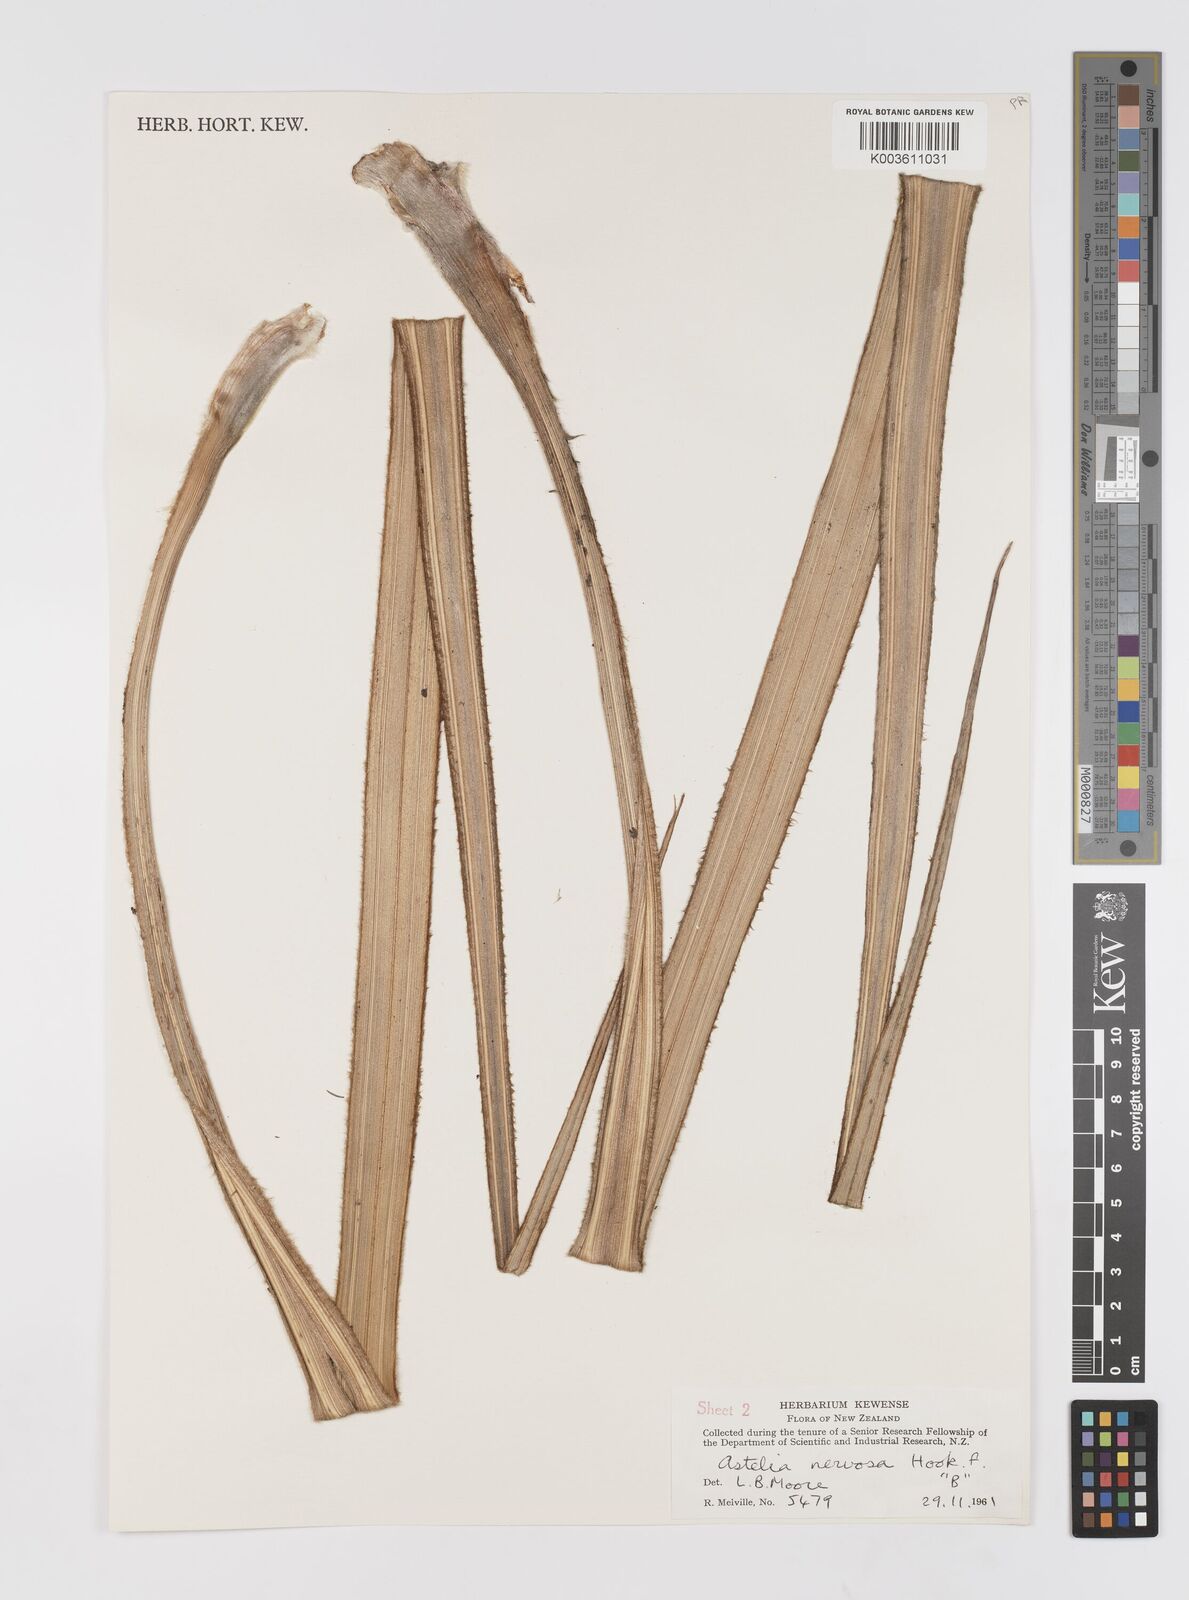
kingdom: Plantae
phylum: Tracheophyta
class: Liliopsida
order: Asparagales
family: Asteliaceae
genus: Astelia
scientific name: Astelia nervosa
